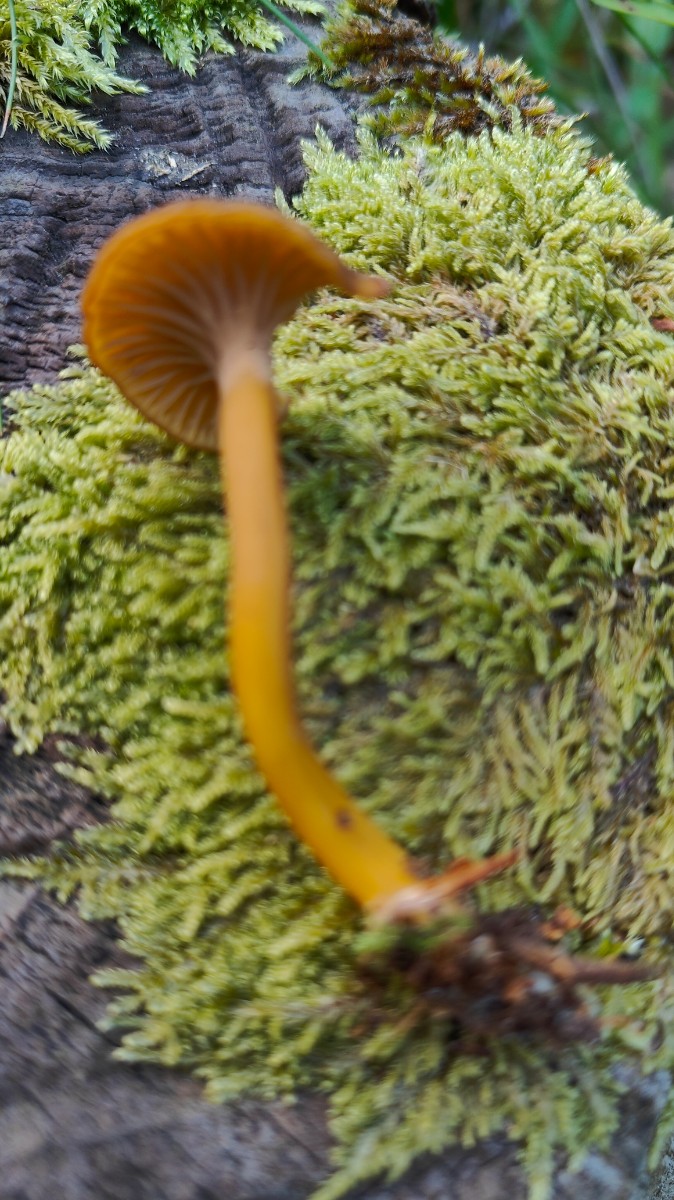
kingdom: Fungi
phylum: Basidiomycota
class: Agaricomycetes
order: Cantharellales
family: Hydnaceae
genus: Craterellus
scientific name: Craterellus tubaeformis
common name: tragt-kantarel
